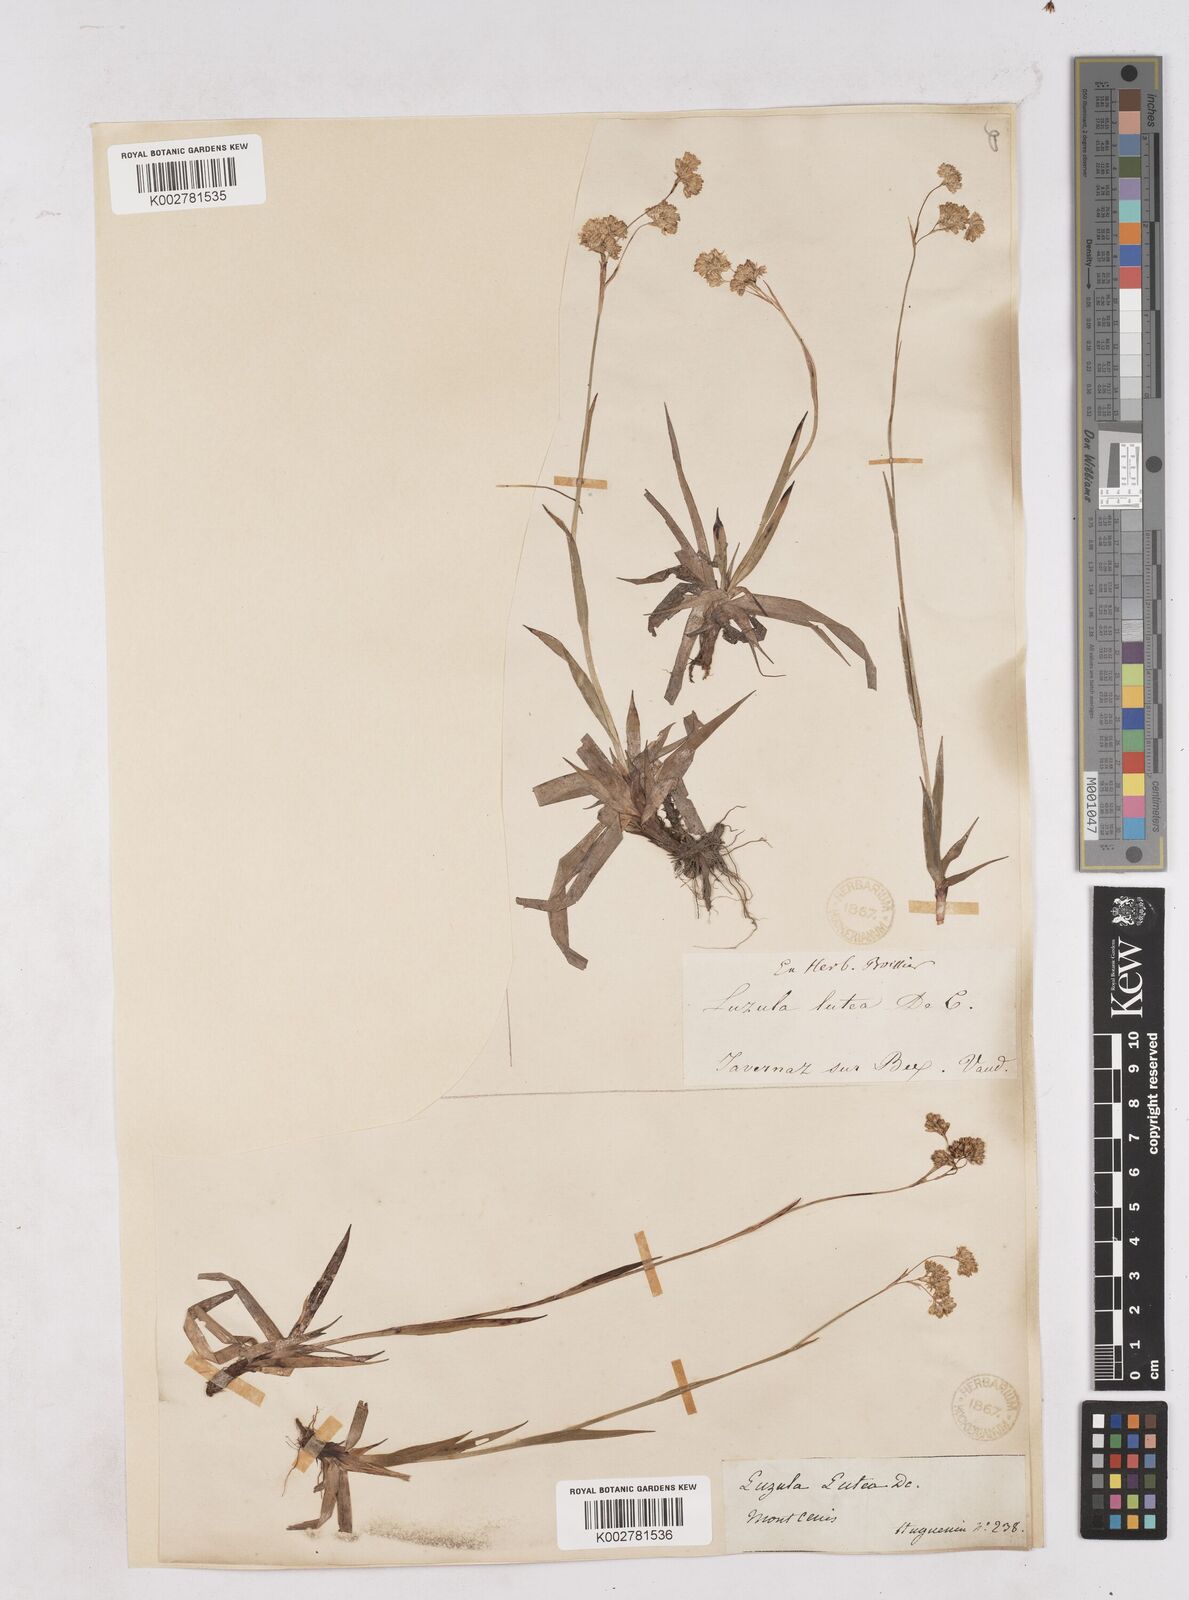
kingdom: Plantae
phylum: Tracheophyta
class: Liliopsida
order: Poales
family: Juncaceae
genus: Luzula
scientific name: Luzula lutea
